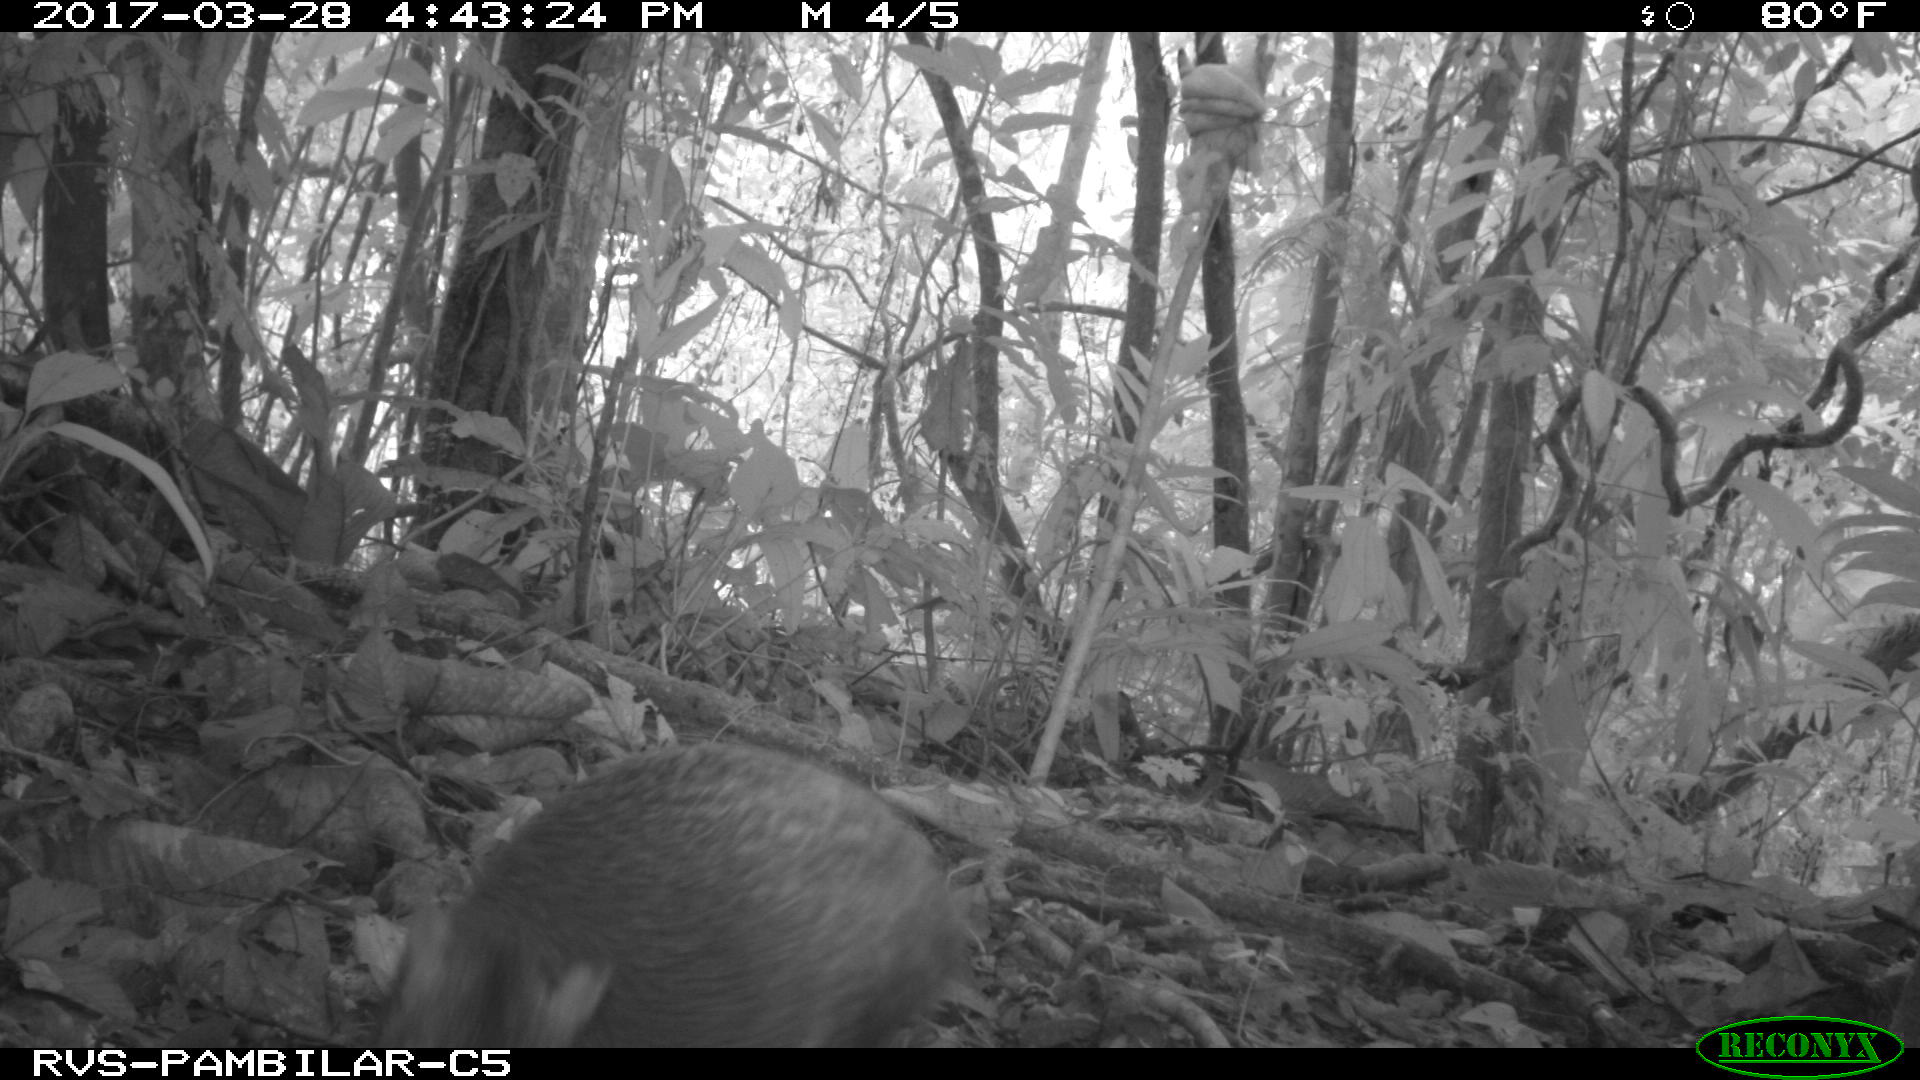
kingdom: Animalia
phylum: Chordata
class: Mammalia
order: Rodentia
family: Dasyproctidae
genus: Dasyprocta
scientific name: Dasyprocta punctata
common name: Central american agouti
